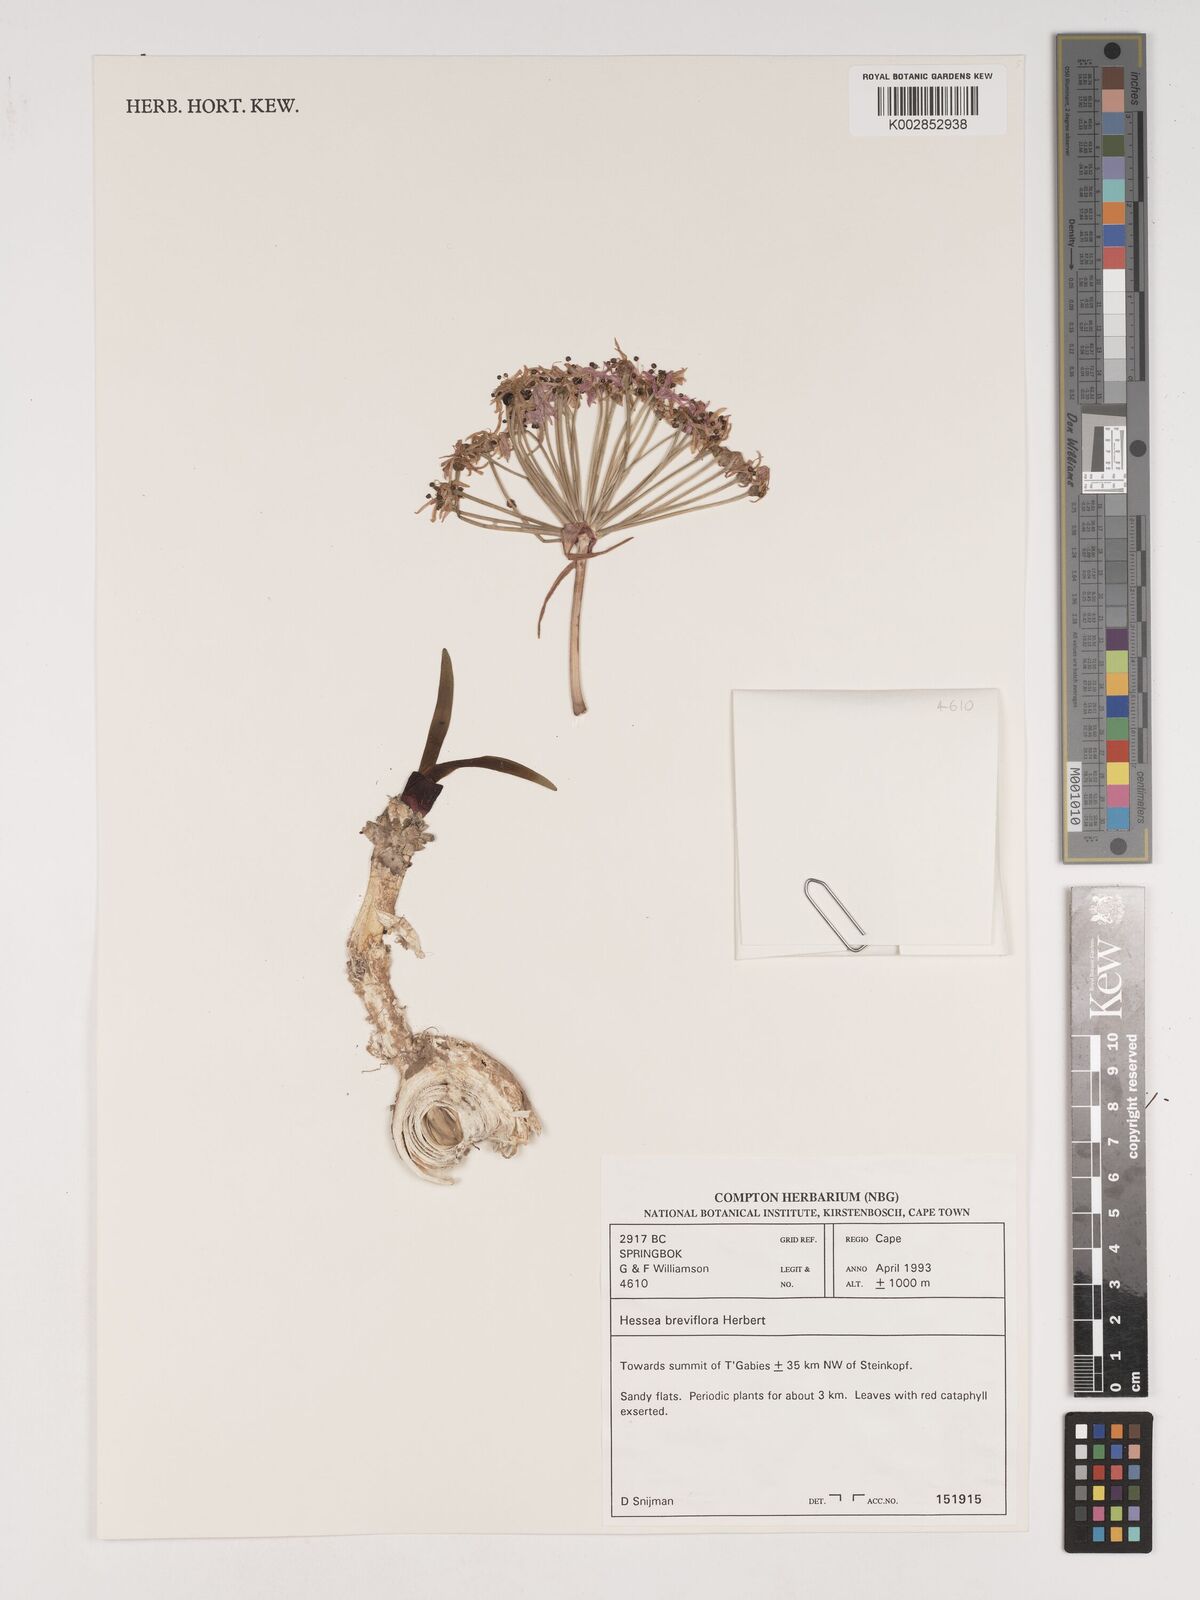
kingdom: Plantae
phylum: Tracheophyta
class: Liliopsida
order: Asparagales
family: Amaryllidaceae
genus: Hessea
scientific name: Hessea breviflora
